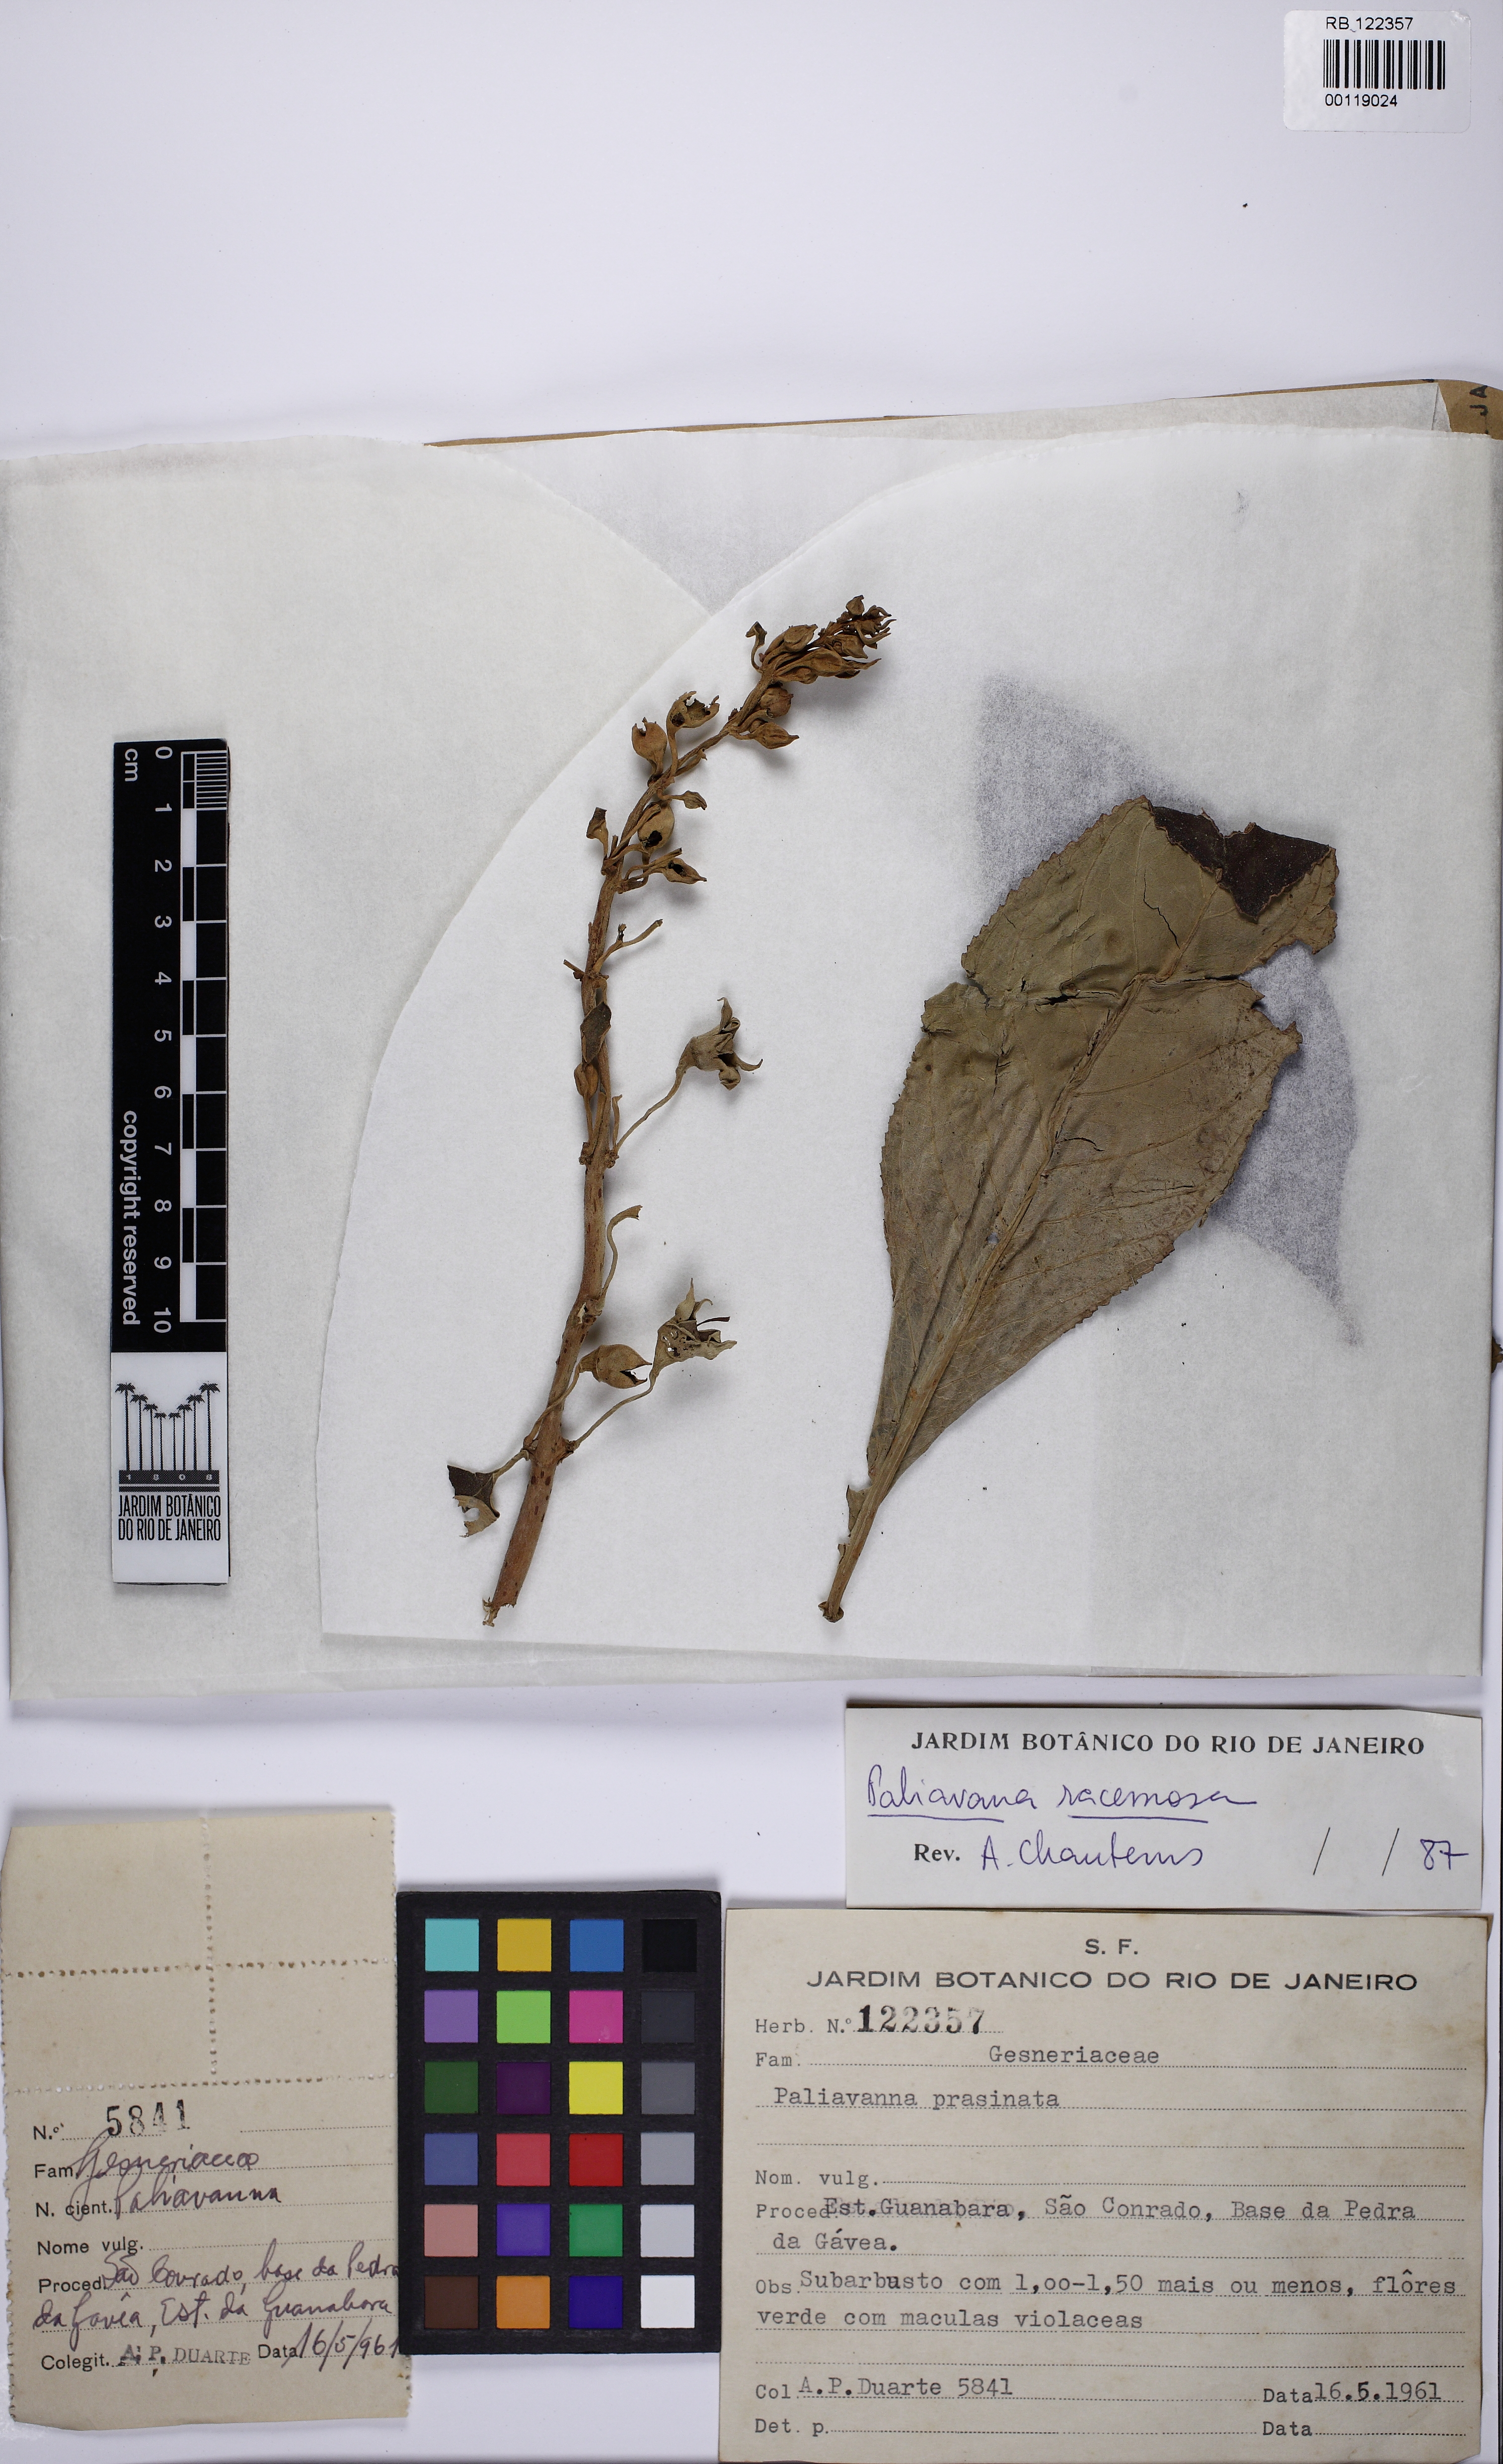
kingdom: Plantae
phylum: Tracheophyta
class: Magnoliopsida
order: Lamiales
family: Gesneriaceae
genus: Paliavana
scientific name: Paliavana prasinata
